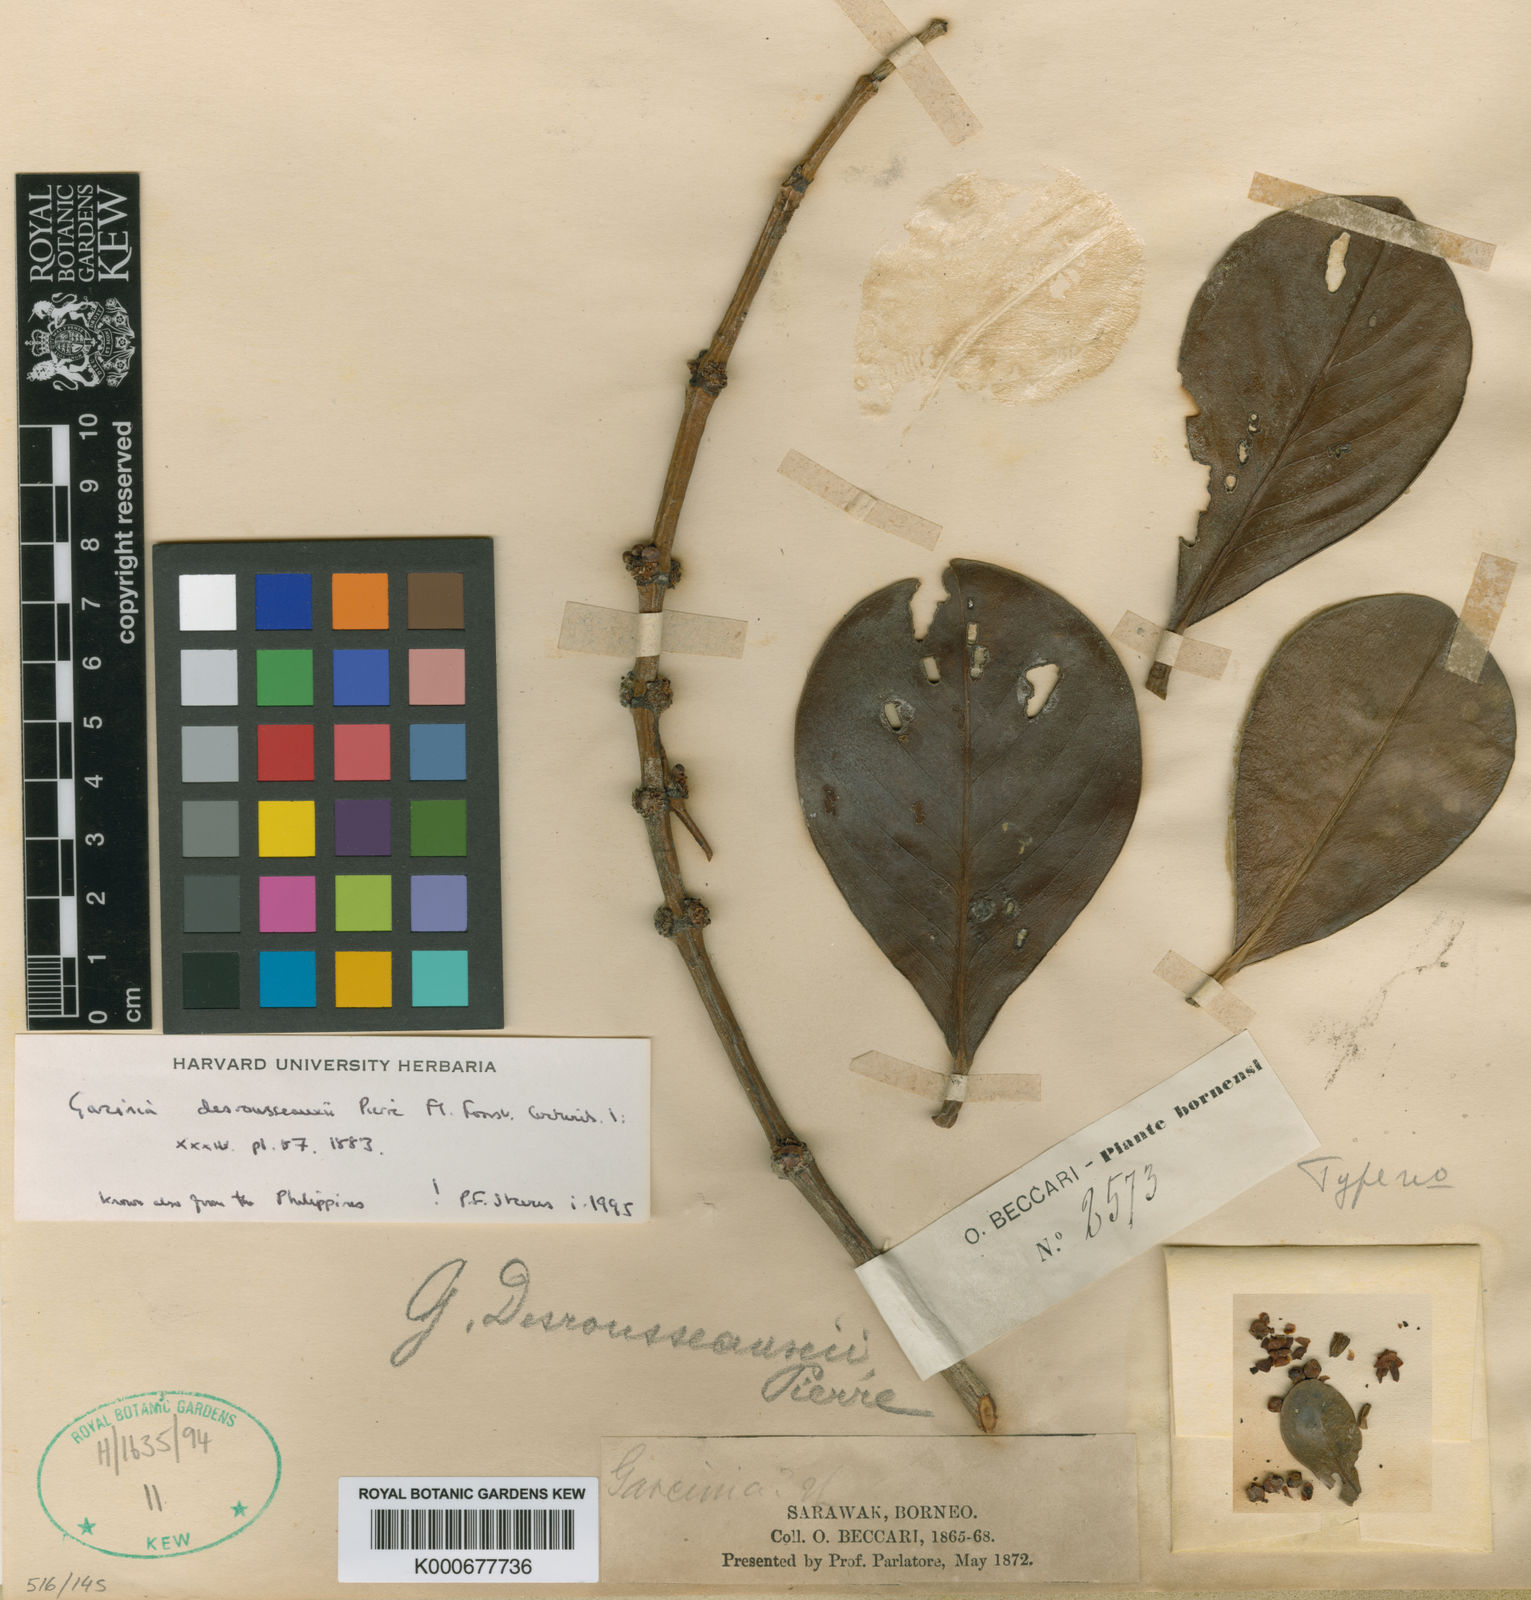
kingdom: Plantae
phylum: Tracheophyta
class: Magnoliopsida
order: Malpighiales
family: Clusiaceae
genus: Garcinia
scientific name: Garcinia desrousseauxii
